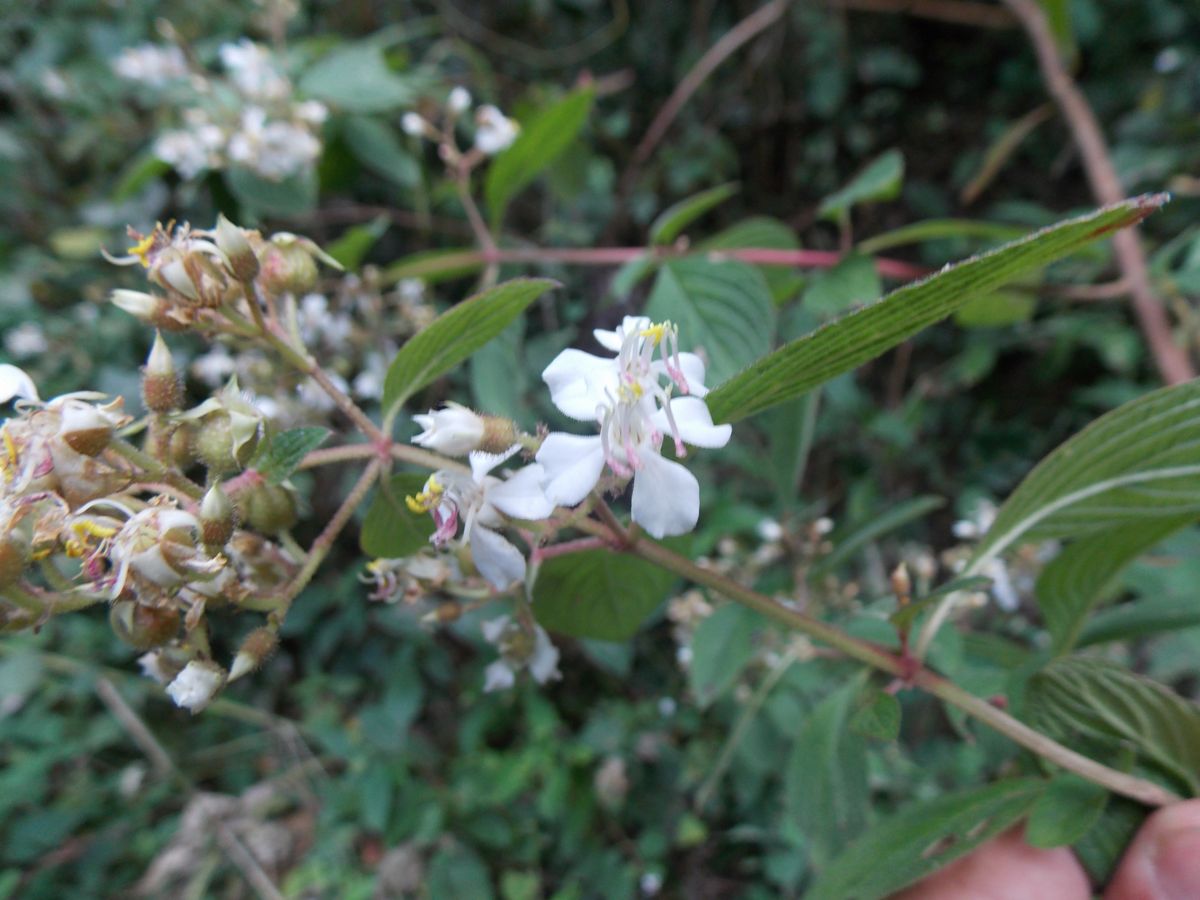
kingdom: Plantae
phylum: Tracheophyta
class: Magnoliopsida
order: Myrtales
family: Melastomataceae
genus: Heterocentron
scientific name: Heterocentron glandulosum
